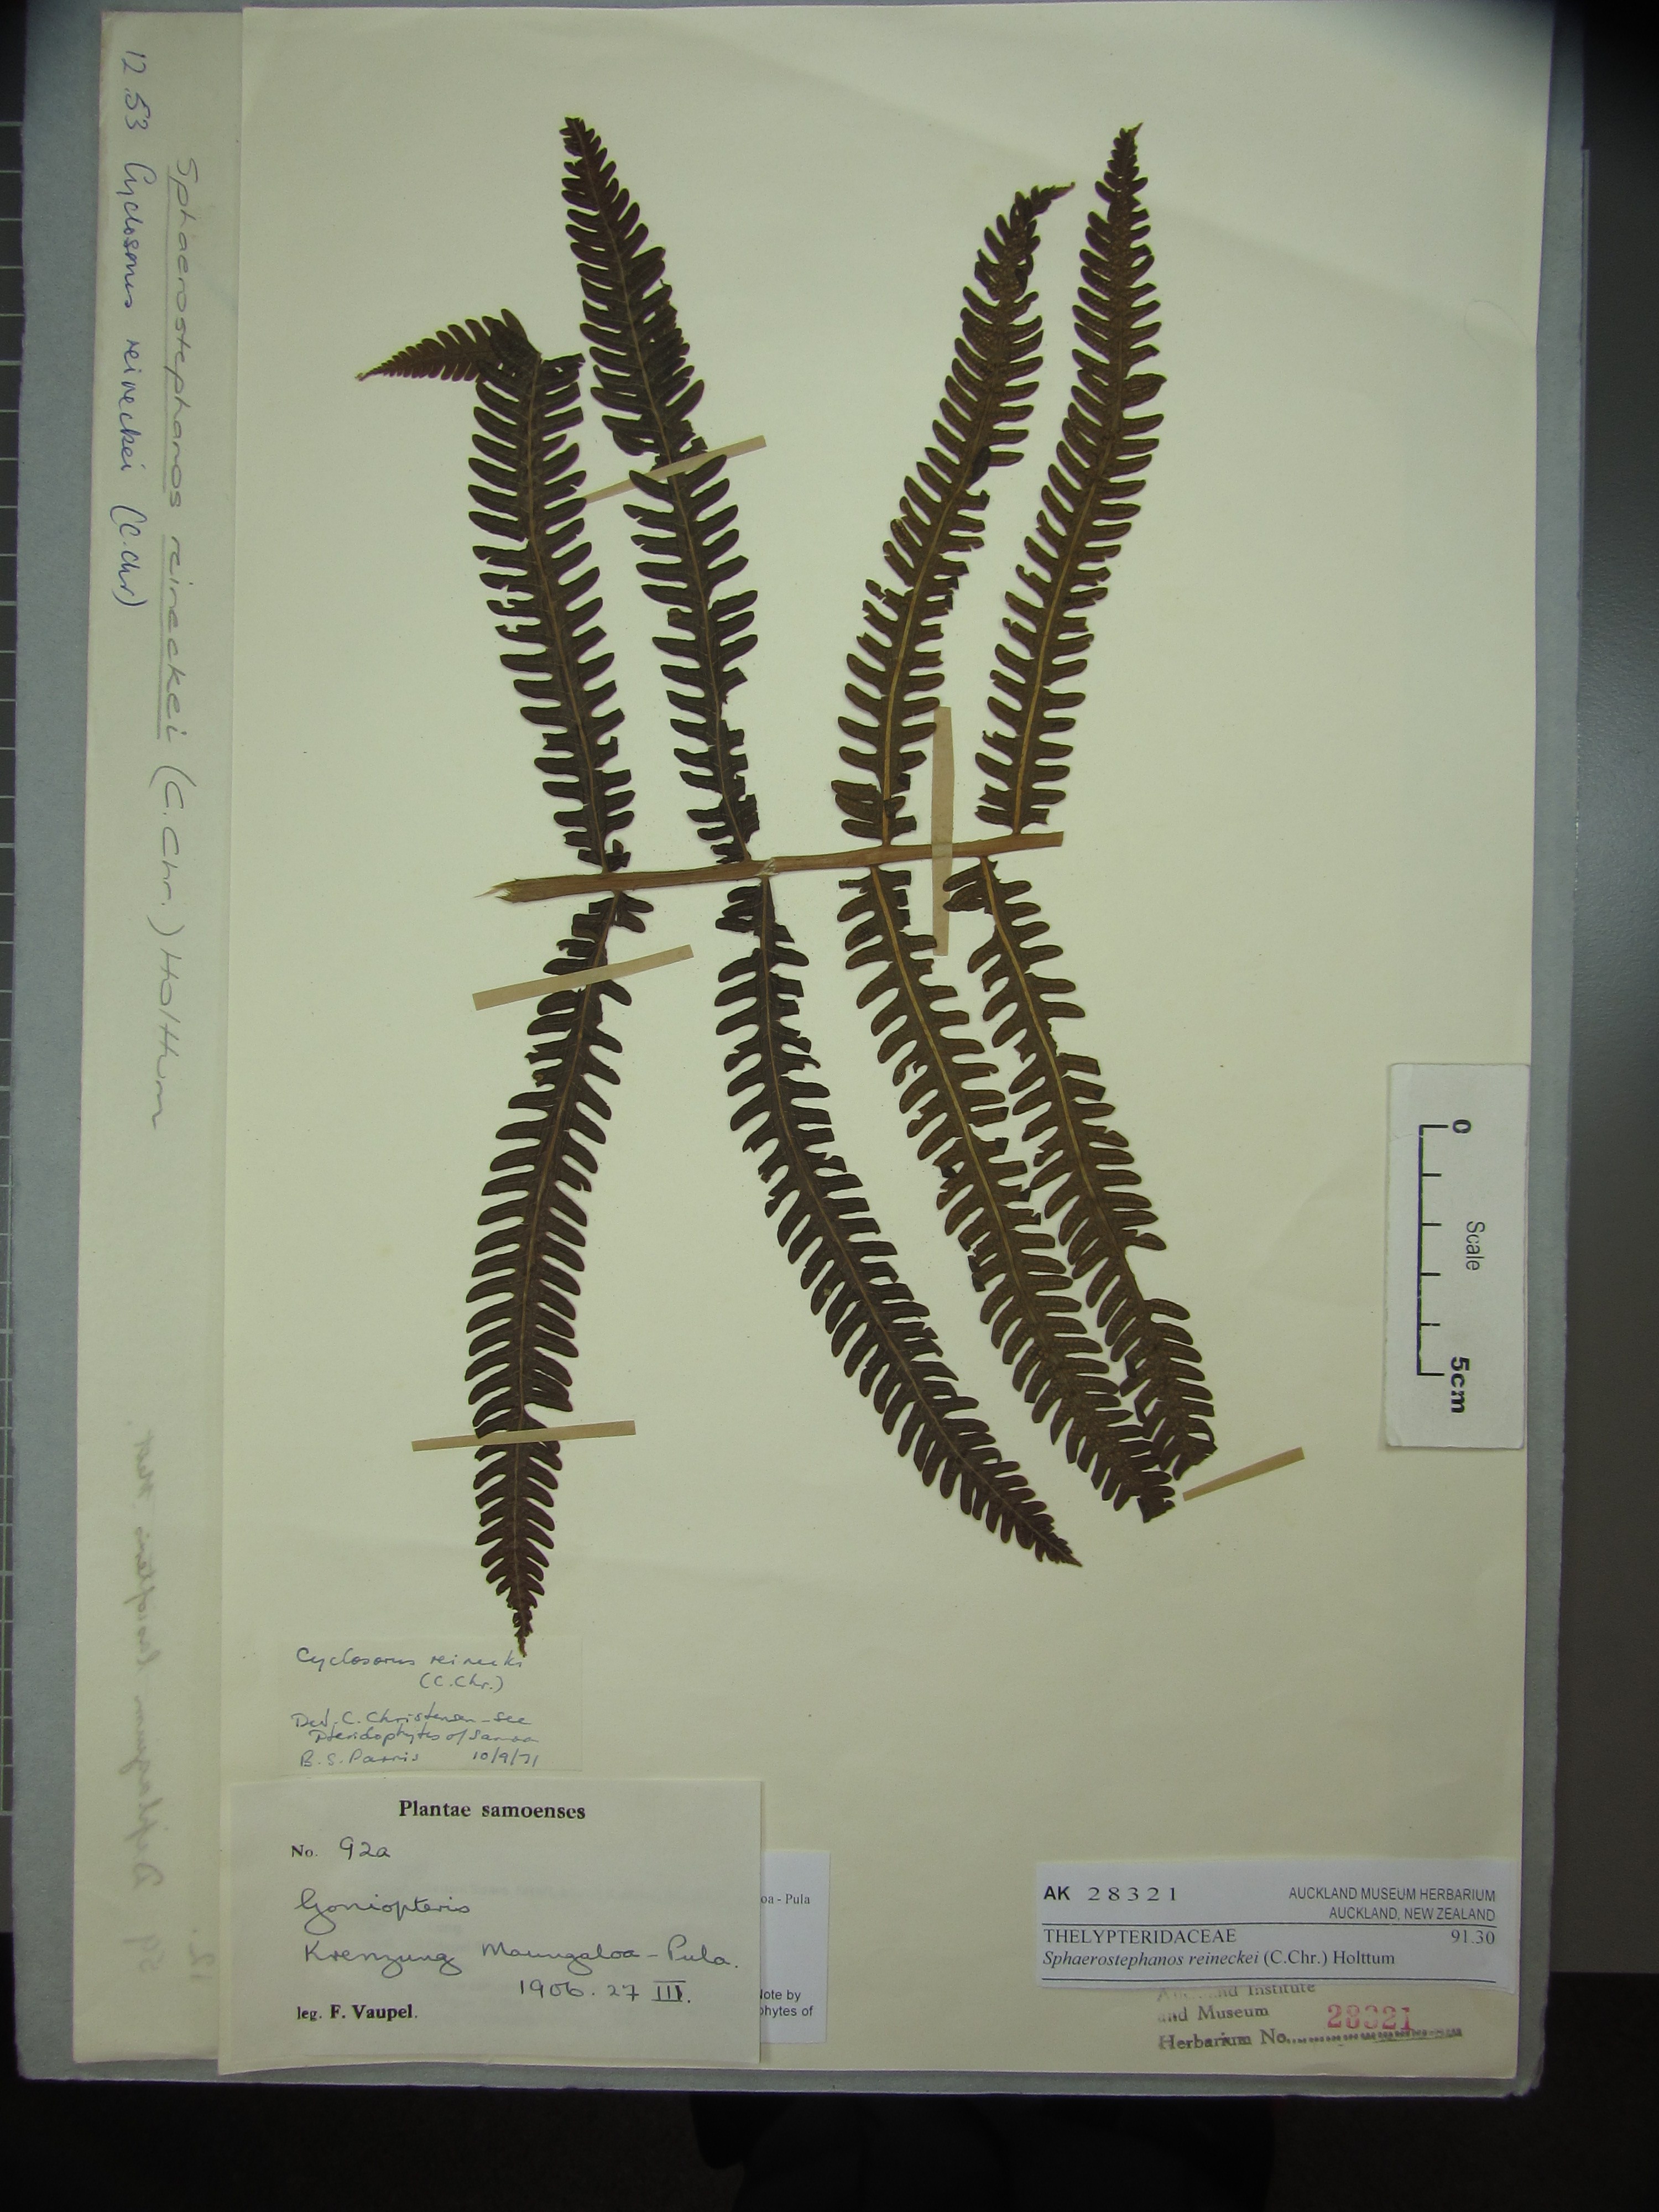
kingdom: Plantae
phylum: Tracheophyta
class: Polypodiopsida
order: Polypodiales
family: Thelypteridaceae
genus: Sphaerostephanos
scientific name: Sphaerostephanos reineckei
